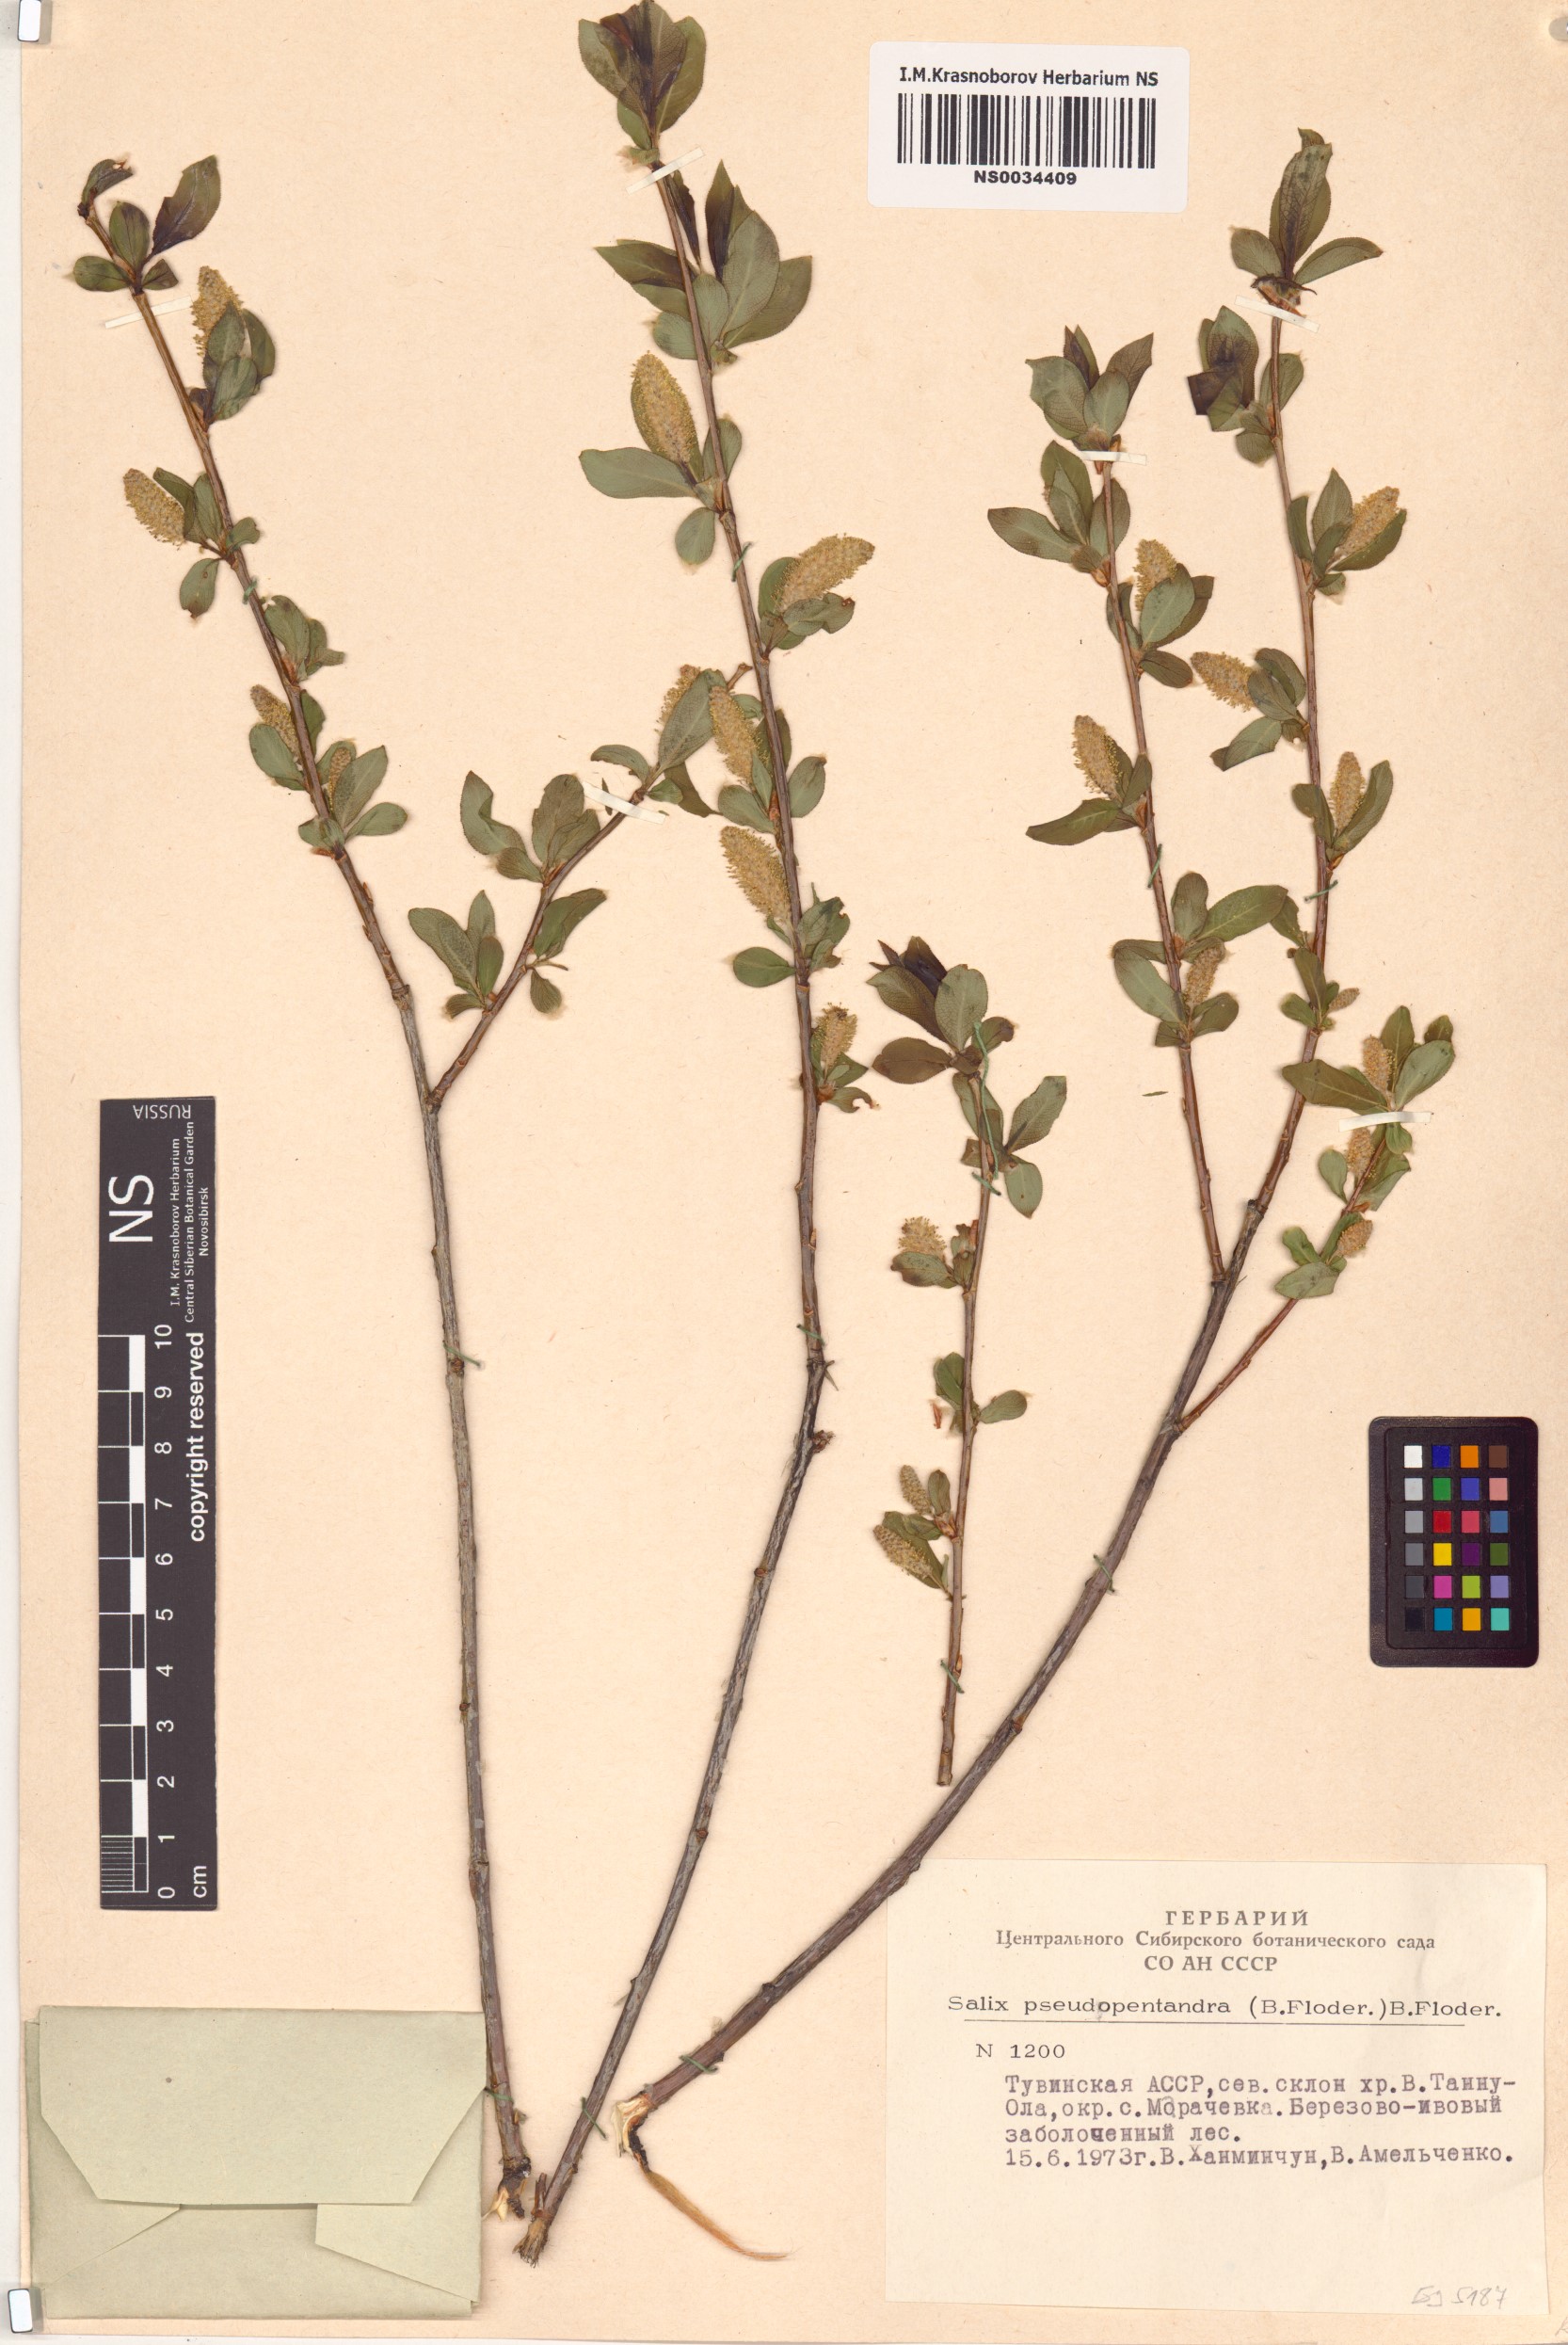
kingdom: Plantae
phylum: Tracheophyta
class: Magnoliopsida
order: Malpighiales
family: Salicaceae
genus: Salix
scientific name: Salix pseudopentandra
